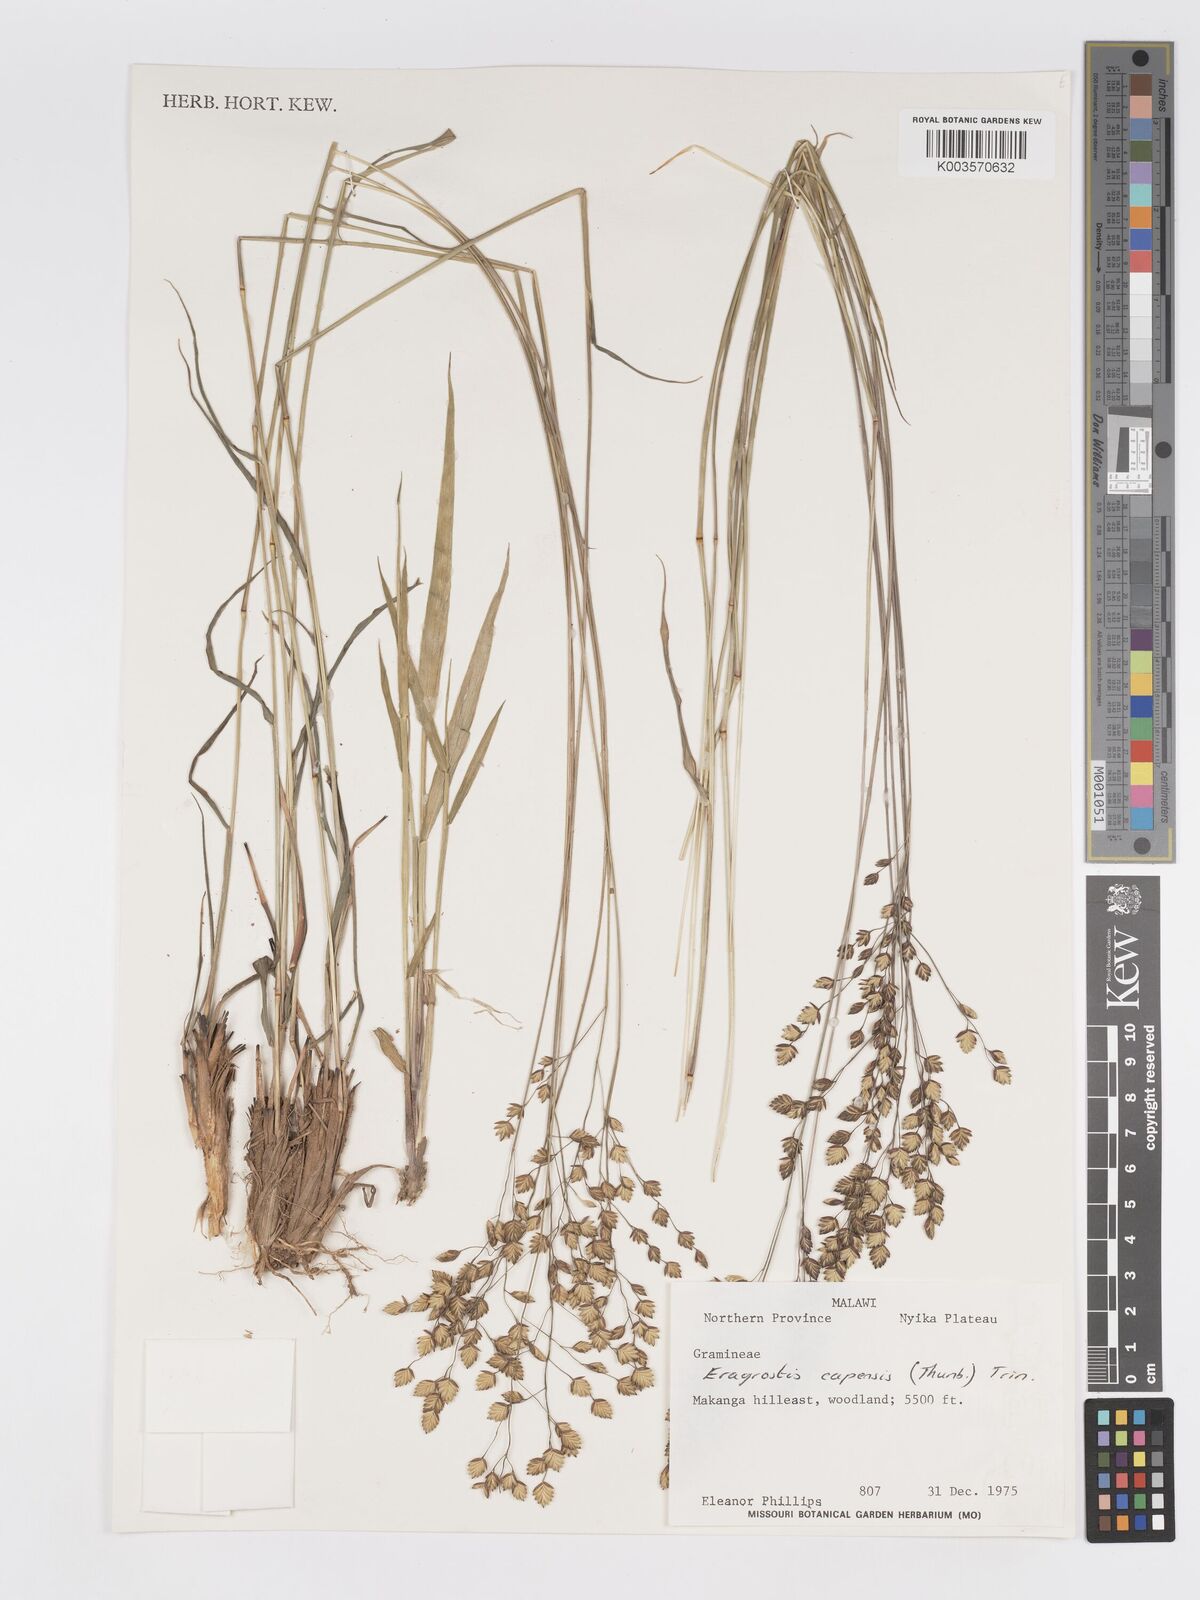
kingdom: Plantae
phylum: Tracheophyta
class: Liliopsida
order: Poales
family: Poaceae
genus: Eragrostis
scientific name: Eragrostis capensis
